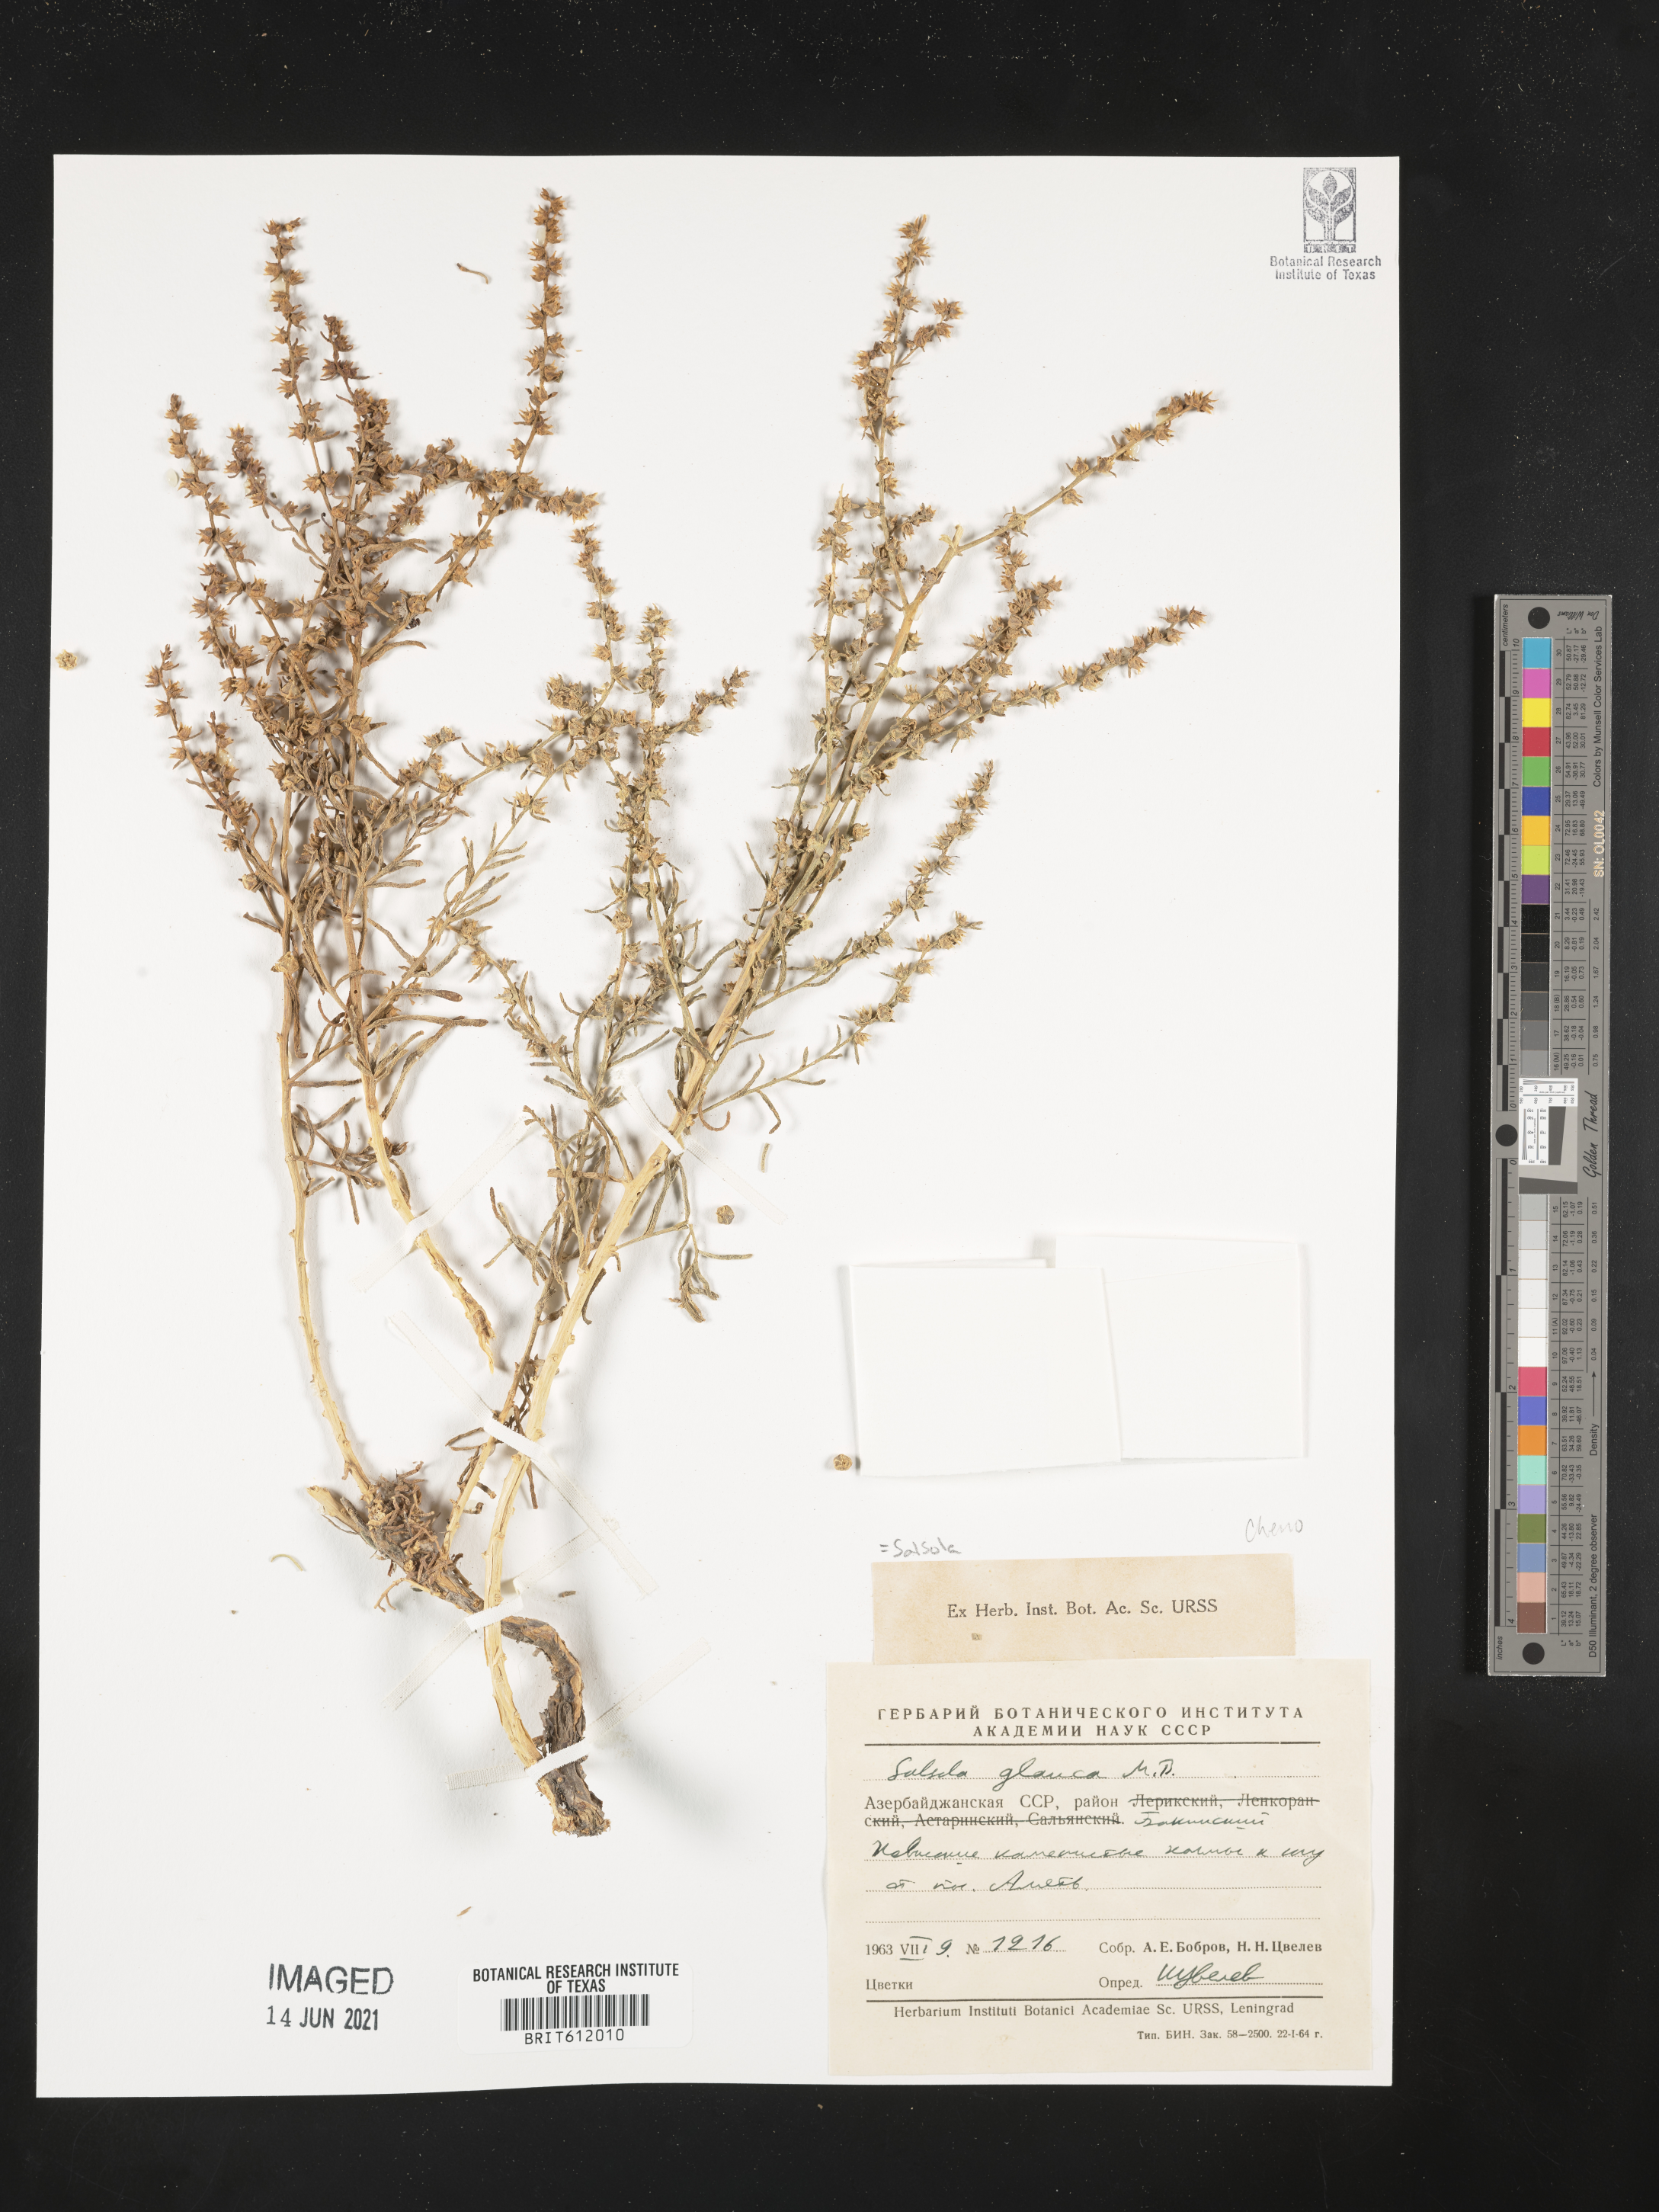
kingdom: Plantae
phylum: Tracheophyta
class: Magnoliopsida
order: Caryophyllales
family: Amaranthaceae
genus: Halothamnus
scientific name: Halothamnus glaucus
